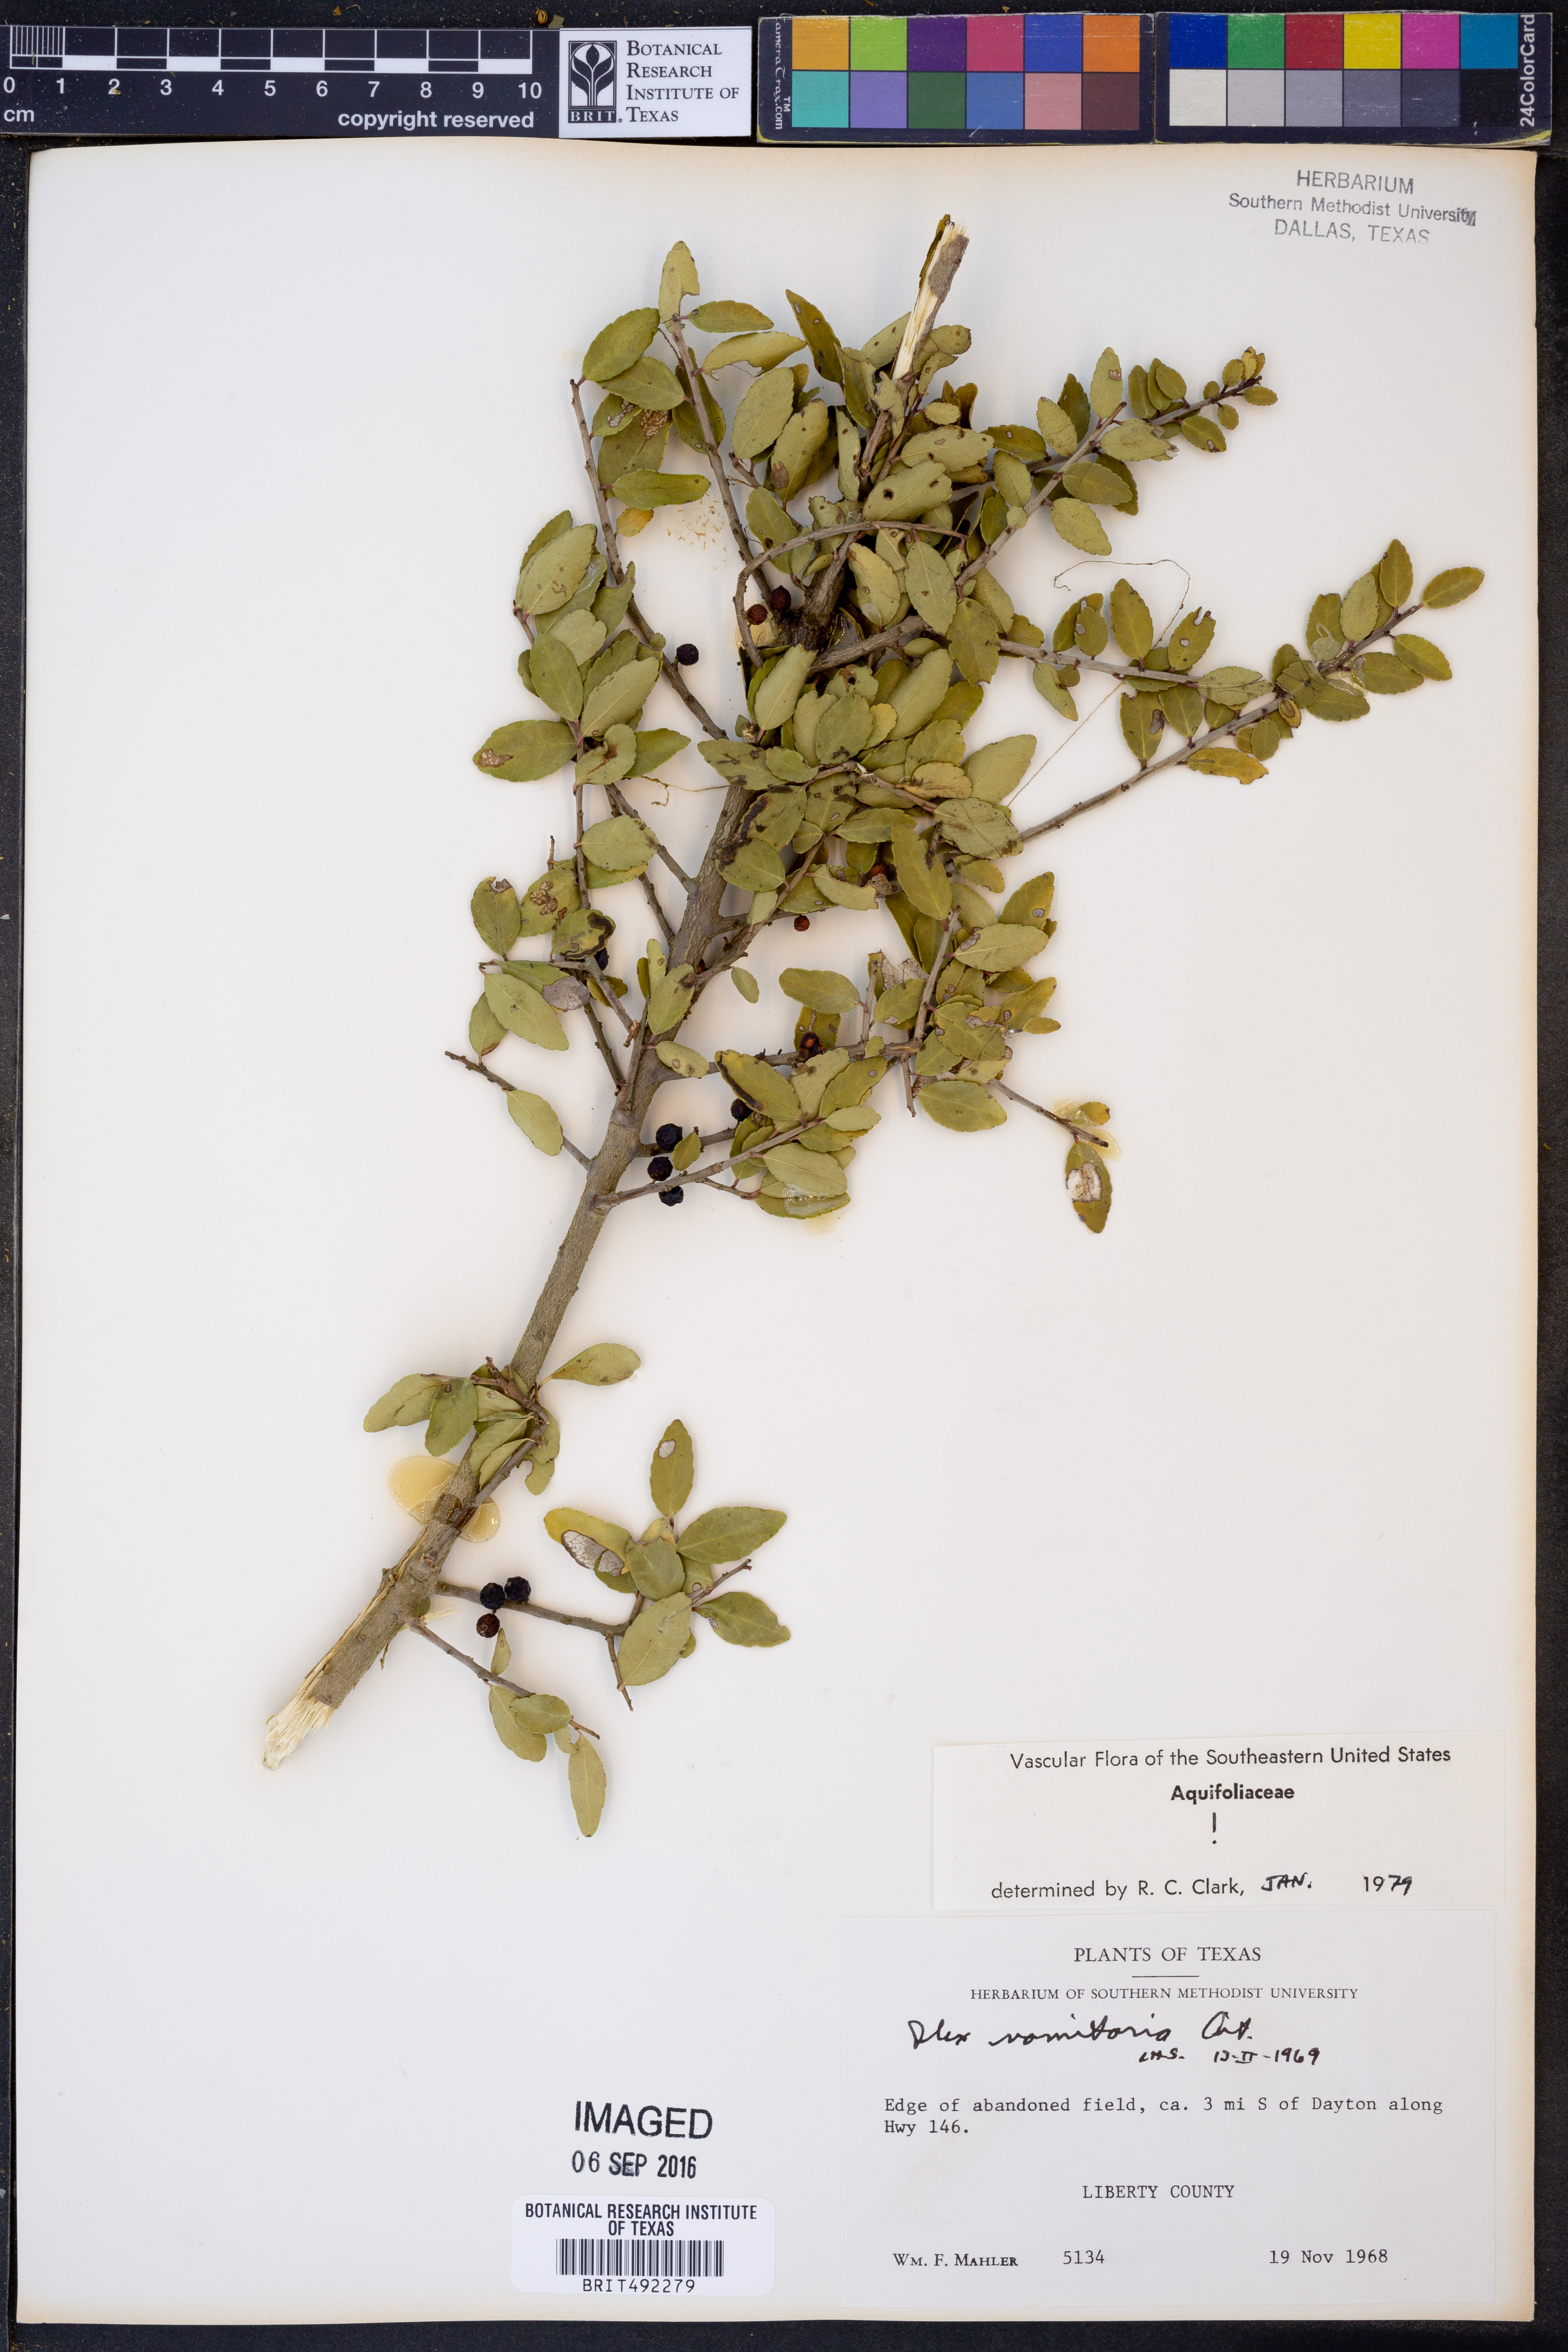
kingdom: Plantae
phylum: Tracheophyta
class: Magnoliopsida
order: Aquifoliales
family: Aquifoliaceae
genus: Ilex
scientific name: Ilex vomitoria
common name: Yaupon holly
